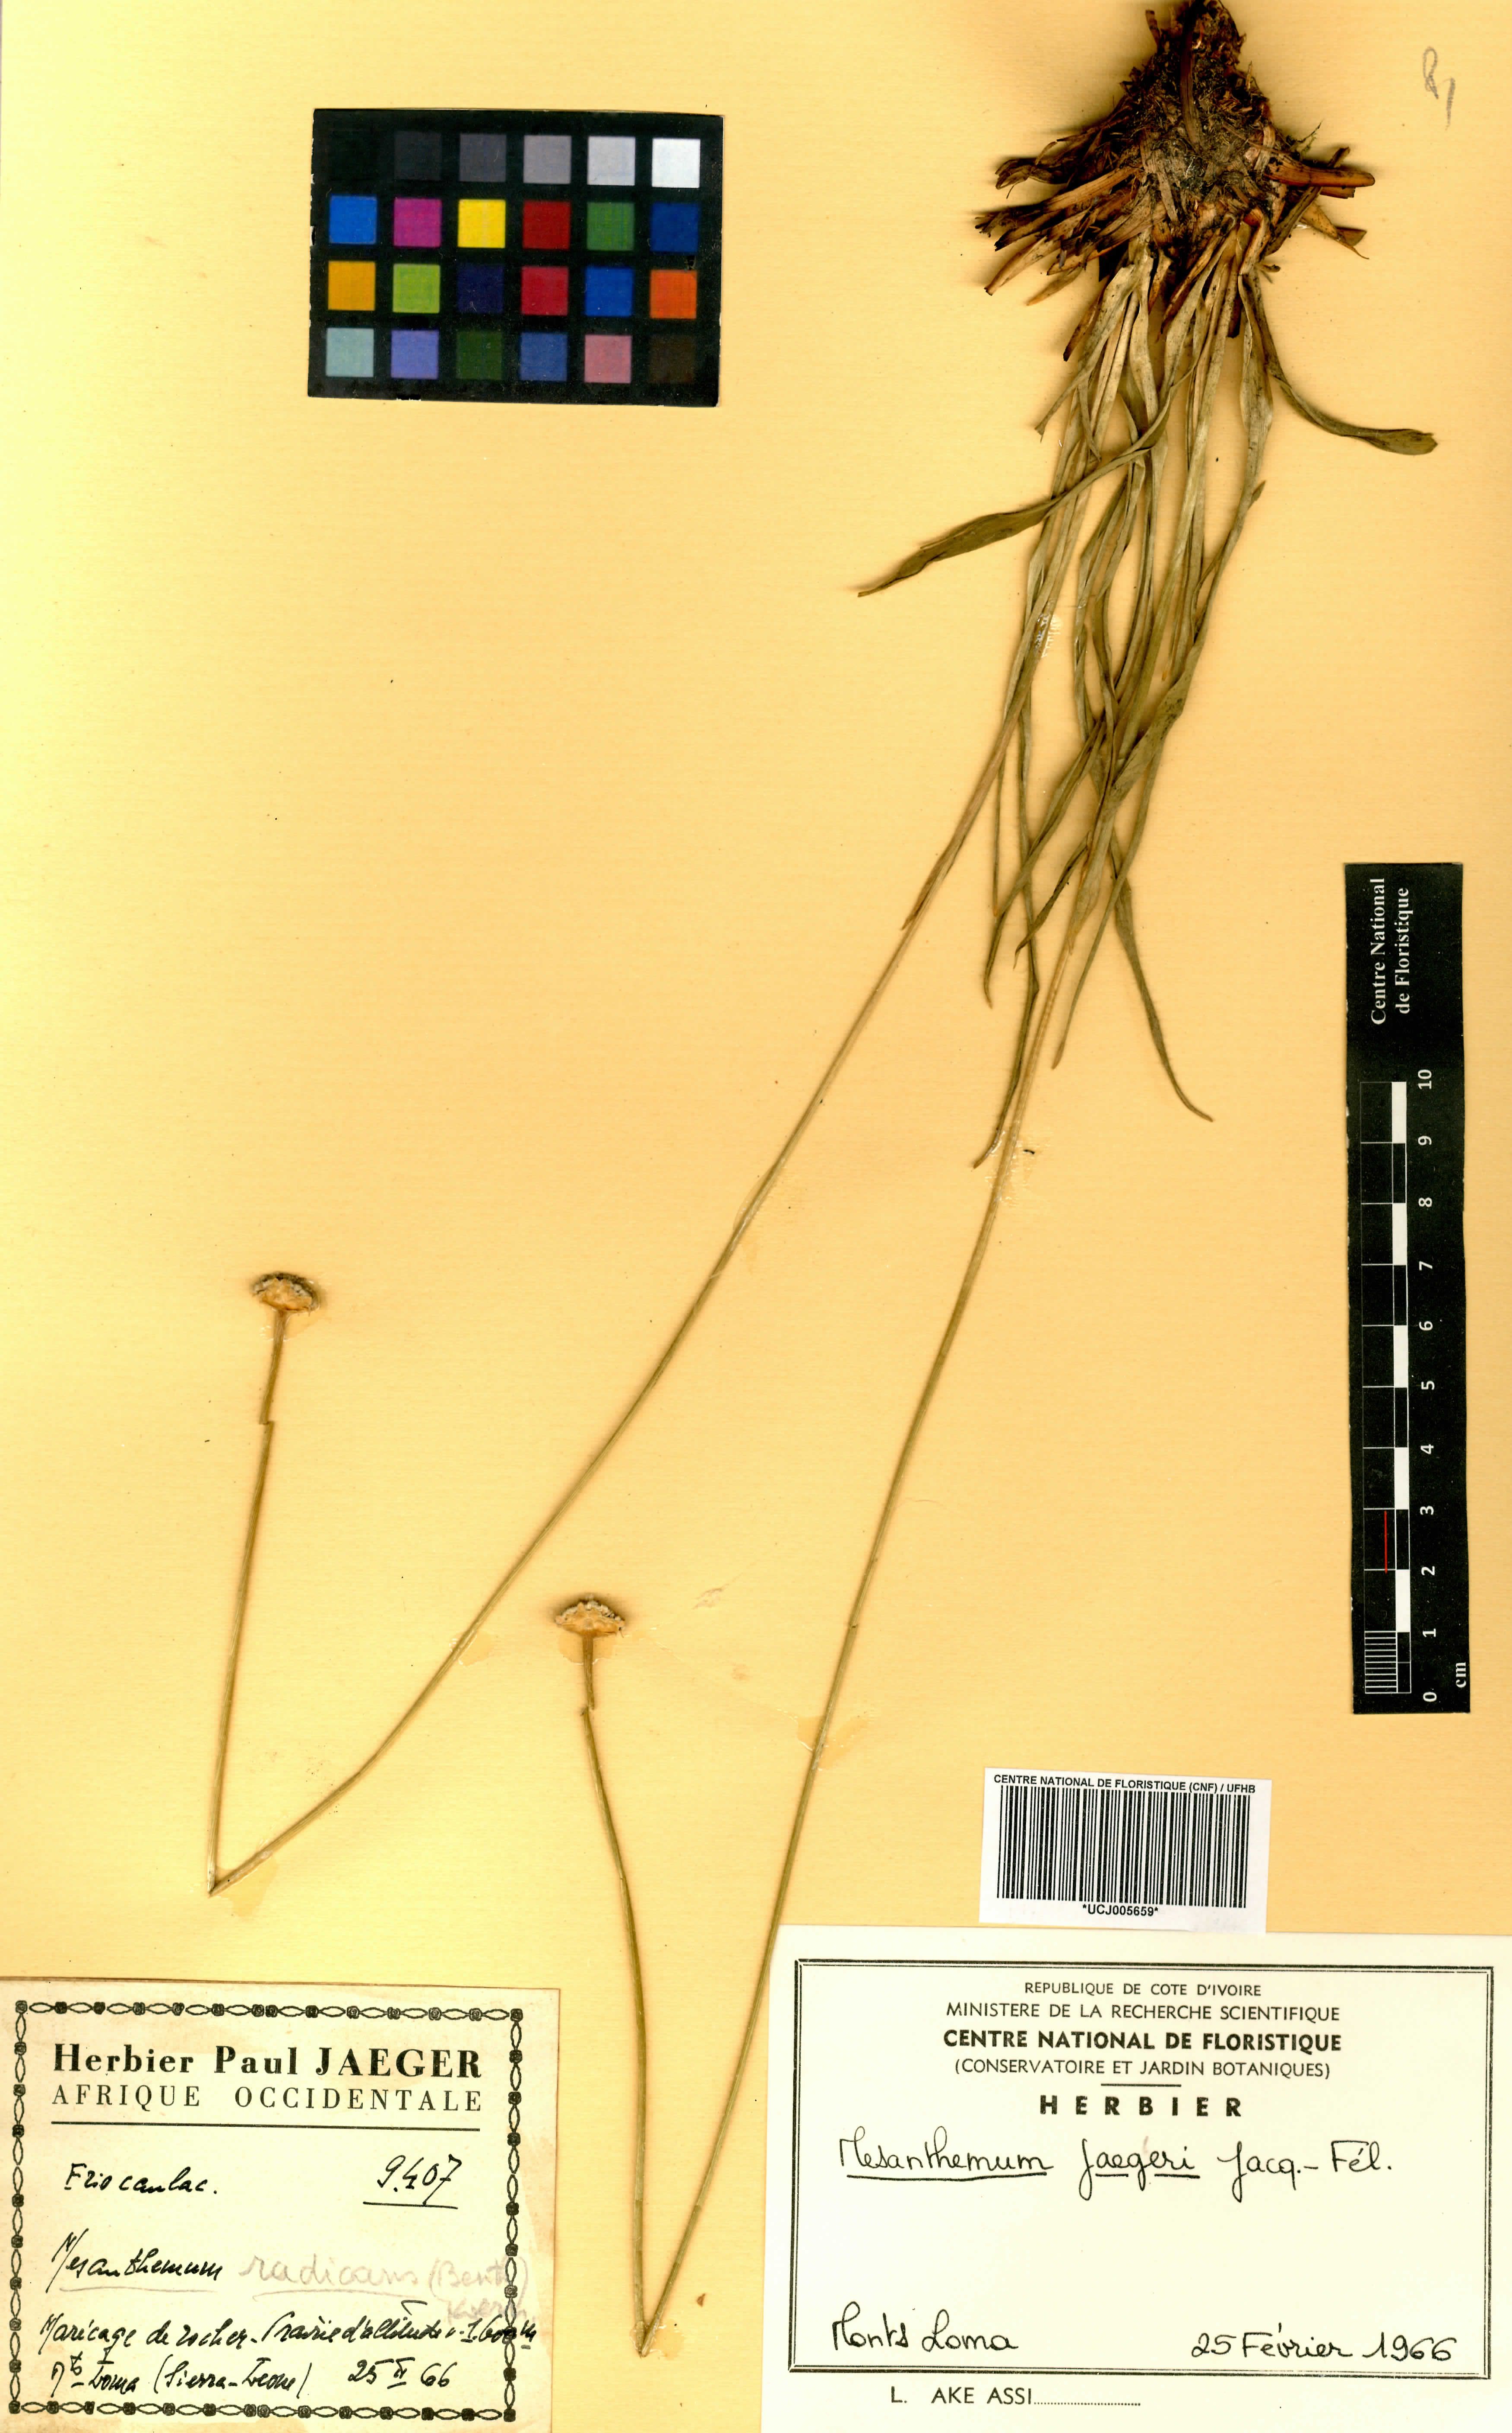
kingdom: Plantae
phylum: Tracheophyta
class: Liliopsida
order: Poales
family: Eriocaulaceae
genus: Mesanthemum
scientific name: Mesanthemum jaegeri
